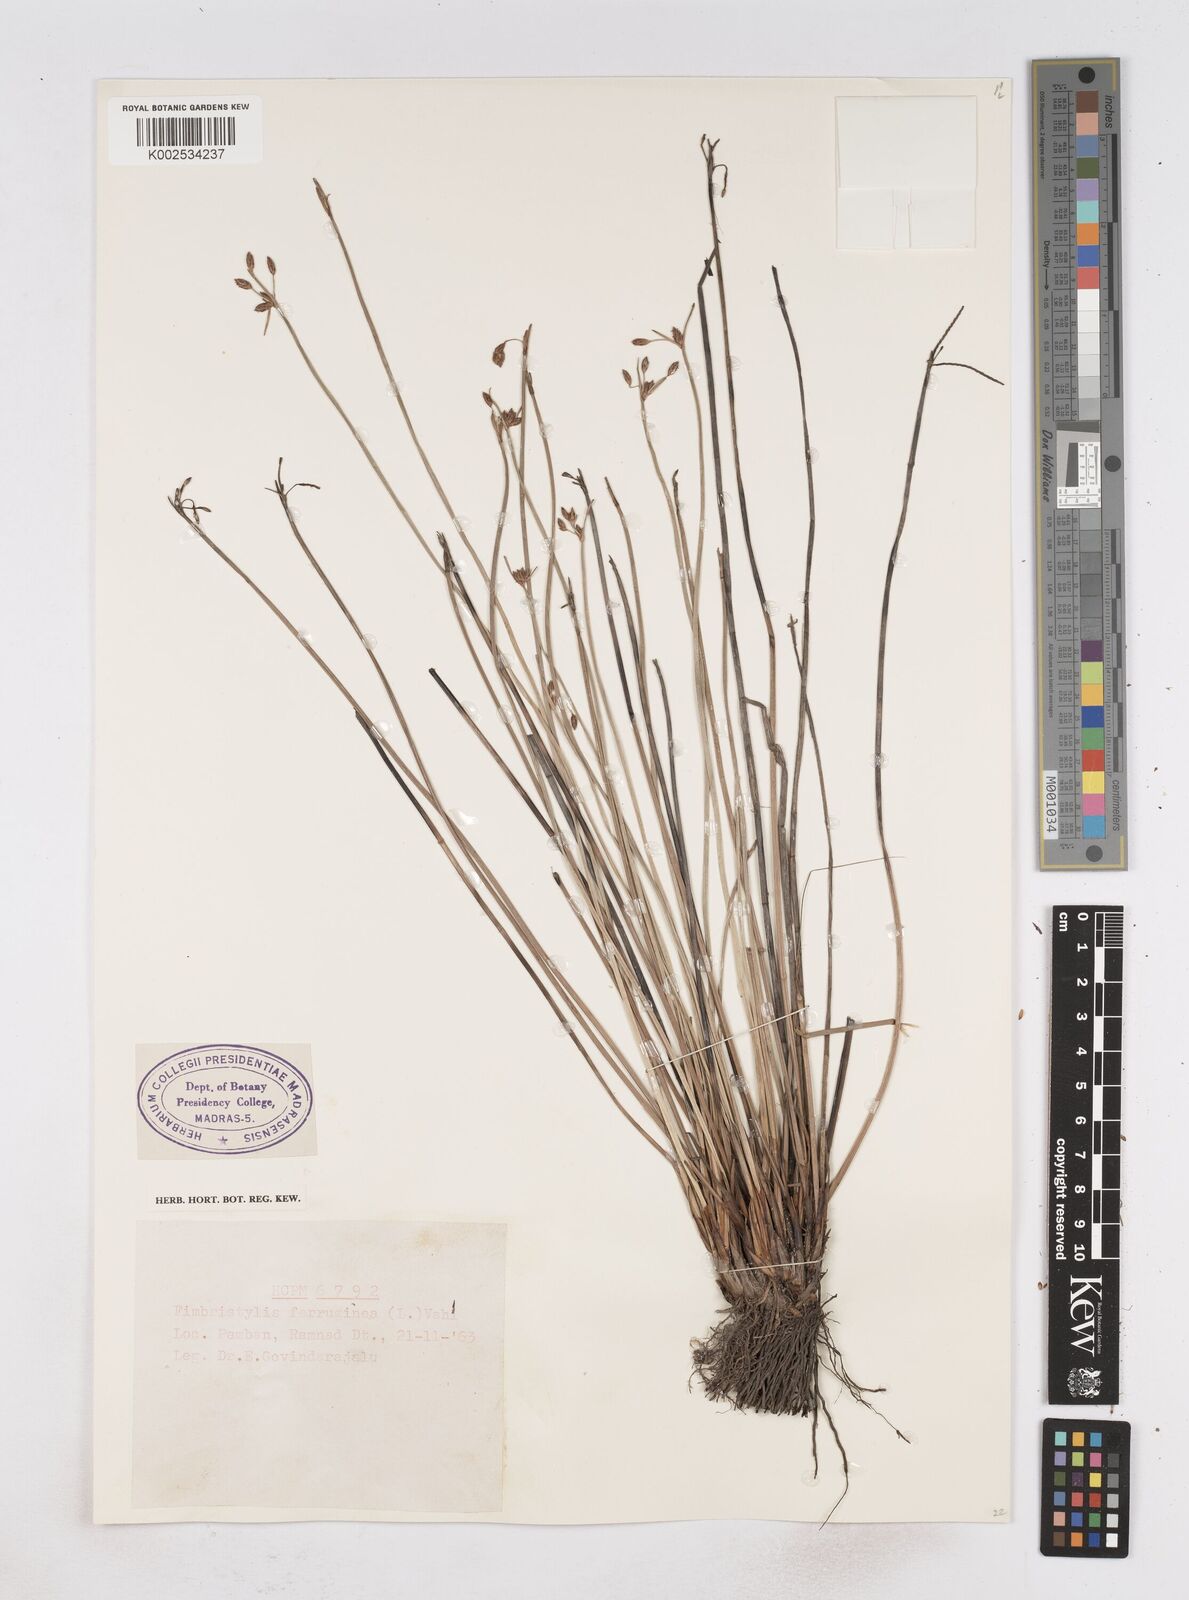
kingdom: Plantae
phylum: Tracheophyta
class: Liliopsida
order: Poales
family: Cyperaceae
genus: Fimbristylis
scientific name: Fimbristylis ferruginea
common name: West indian fimbry
